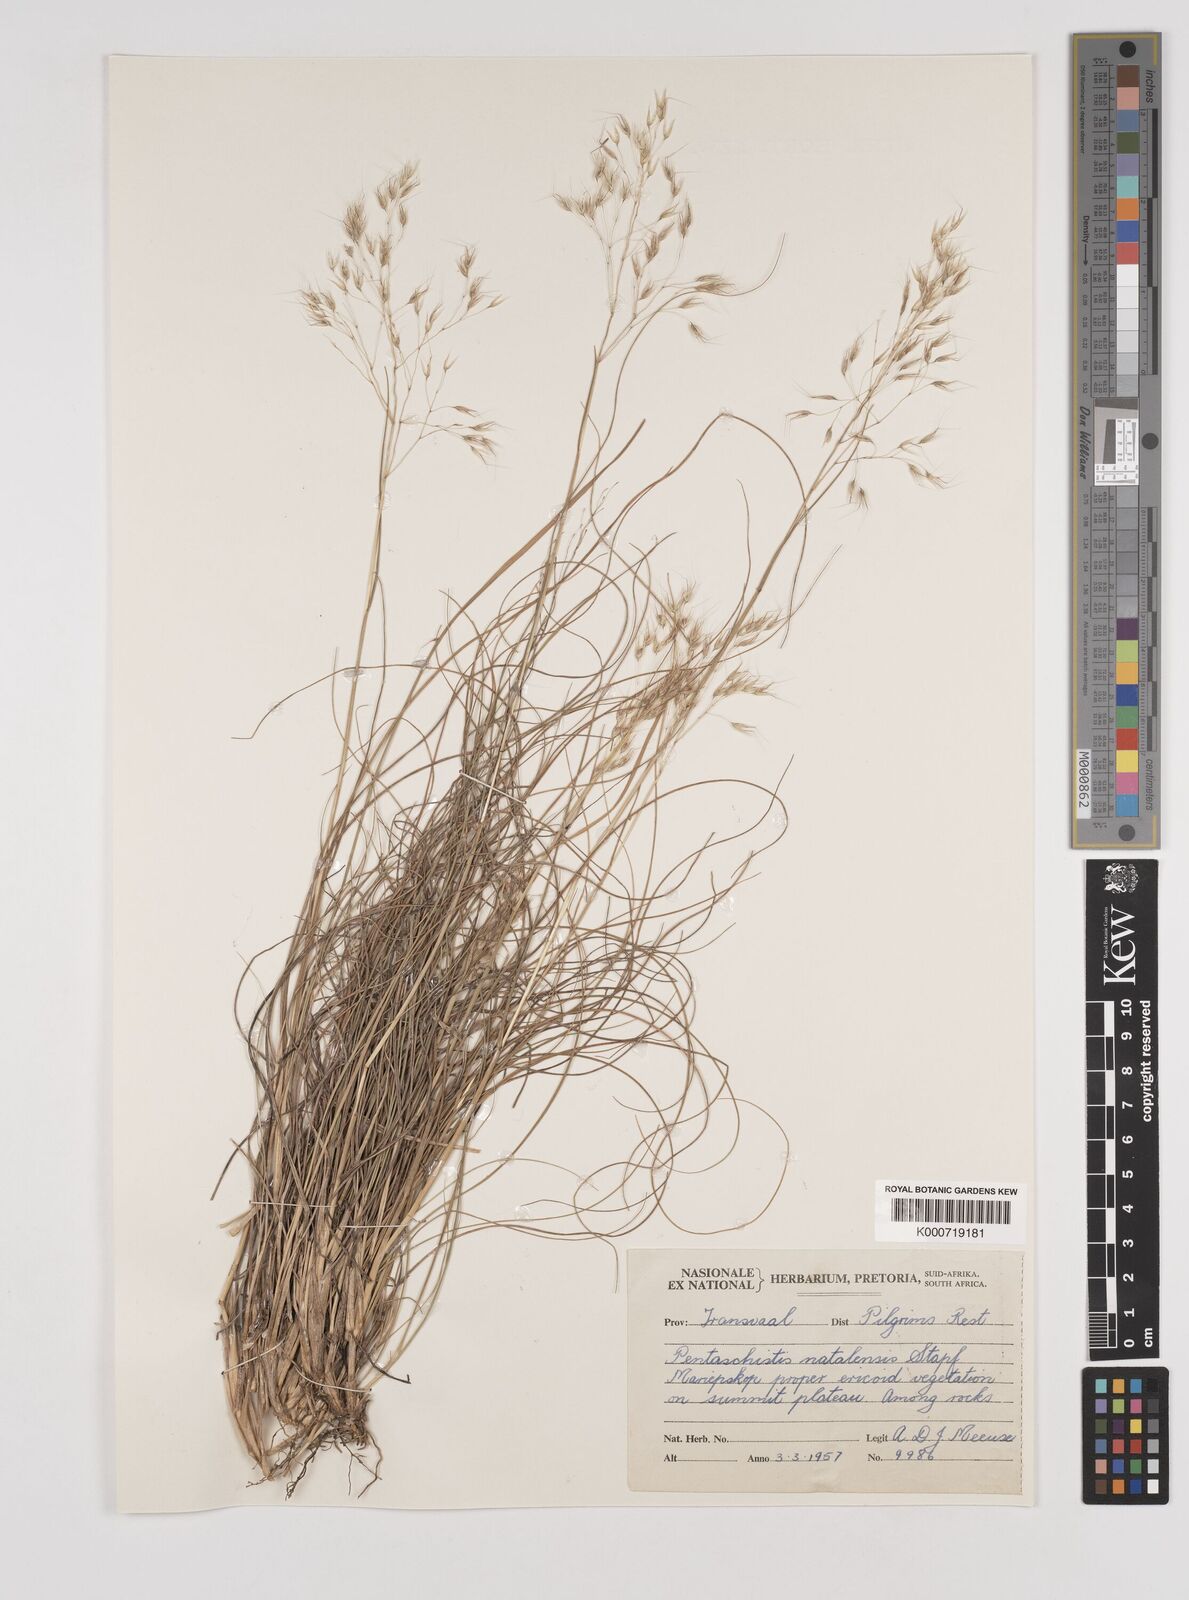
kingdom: Plantae
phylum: Tracheophyta
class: Liliopsida
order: Poales
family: Poaceae
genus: Pentameris
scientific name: Pentameris natalensis
